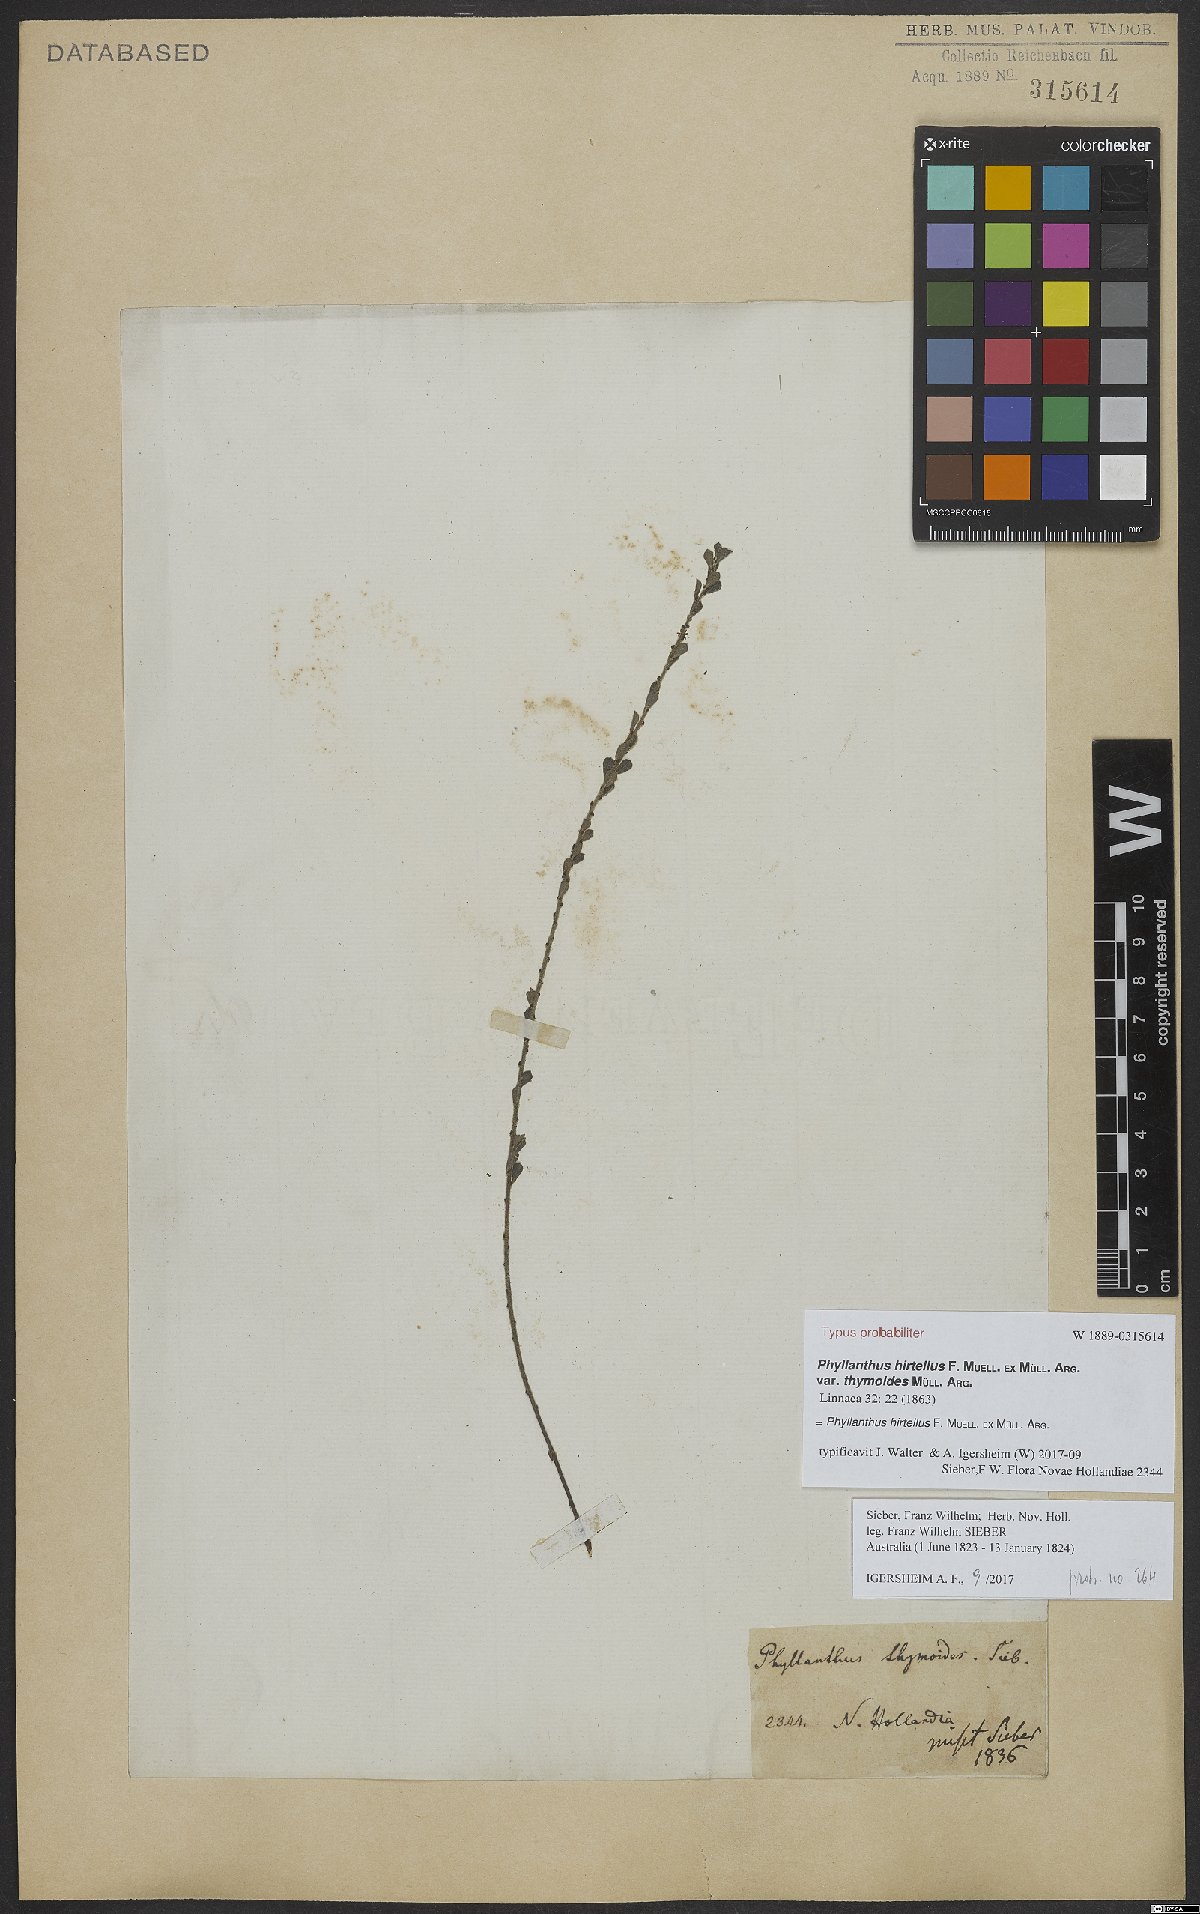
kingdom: Plantae
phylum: Tracheophyta
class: Magnoliopsida
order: Malpighiales
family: Phyllanthaceae
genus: Phyllanthus
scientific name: Phyllanthus hirtellus
